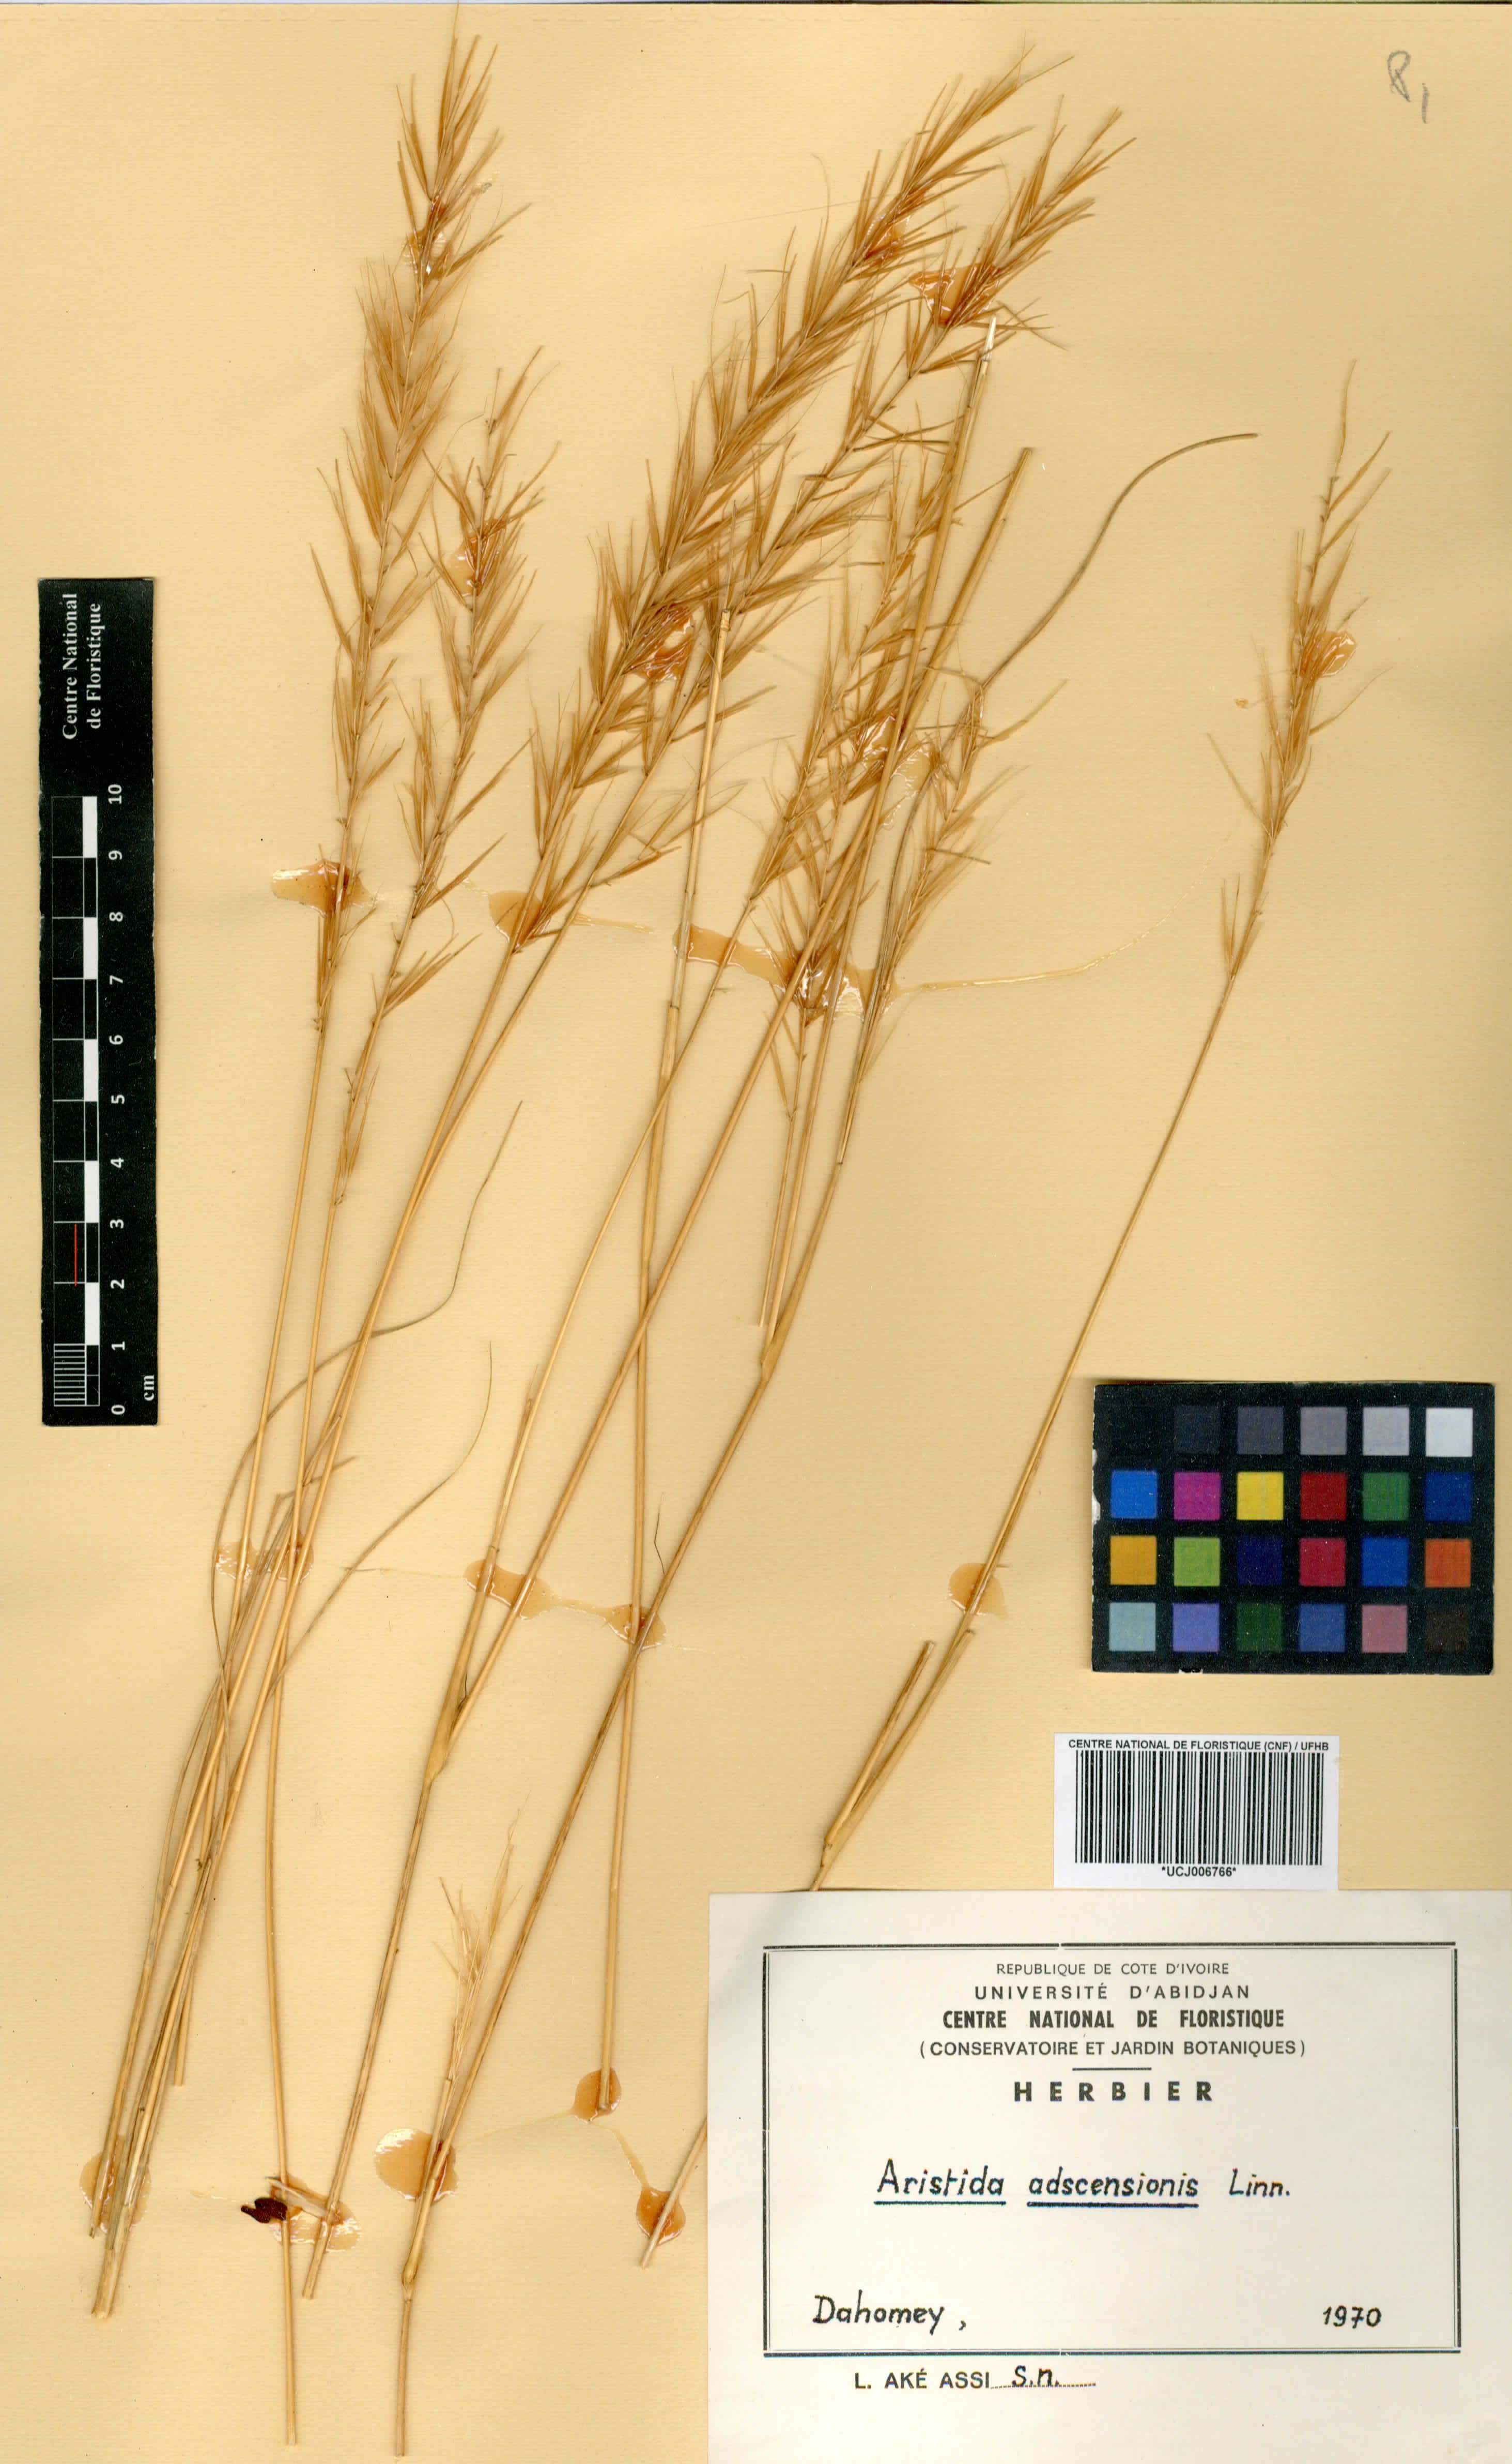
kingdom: Plantae
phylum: Tracheophyta
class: Liliopsida
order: Poales
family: Poaceae
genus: Aristida
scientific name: Aristida adscensionis
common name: Sixweeks threeawn
